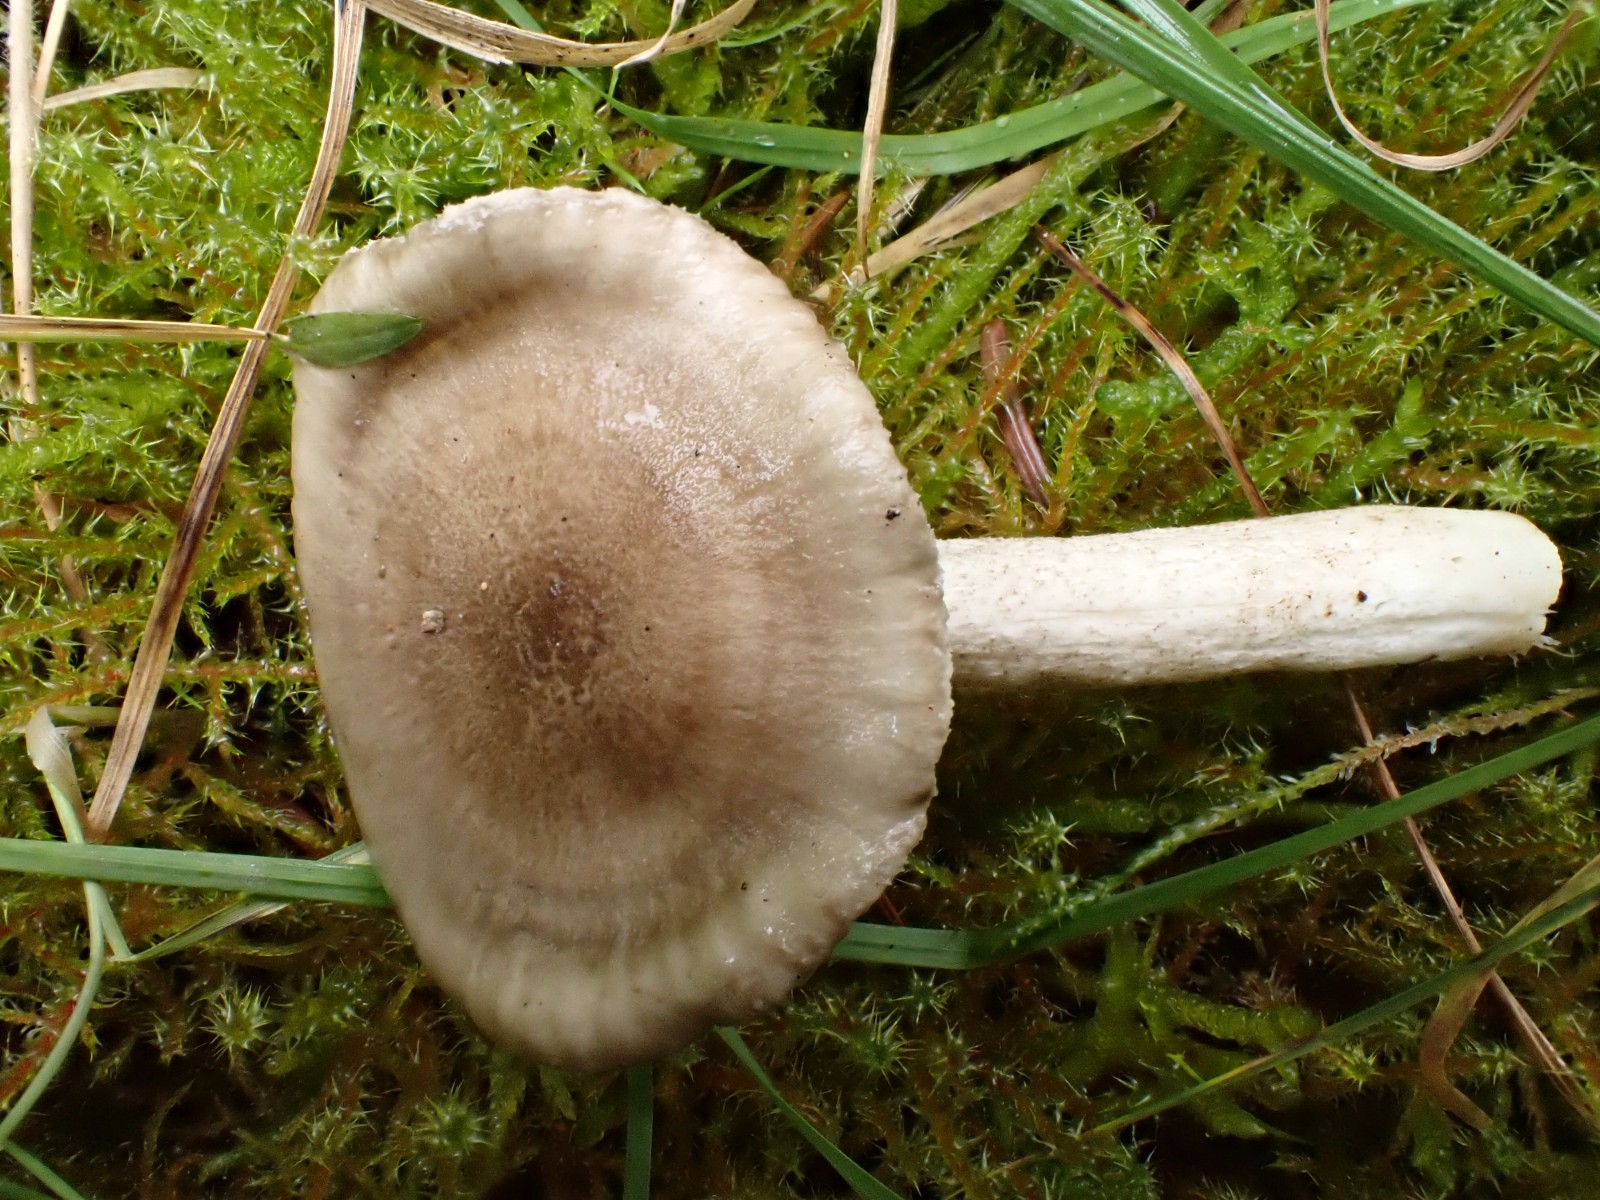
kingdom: Fungi
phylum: Basidiomycota
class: Agaricomycetes
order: Agaricales
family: Hygrophoraceae
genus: Hygrophorus
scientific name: Hygrophorus pustulatus
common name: mørkprikket sneglehat
